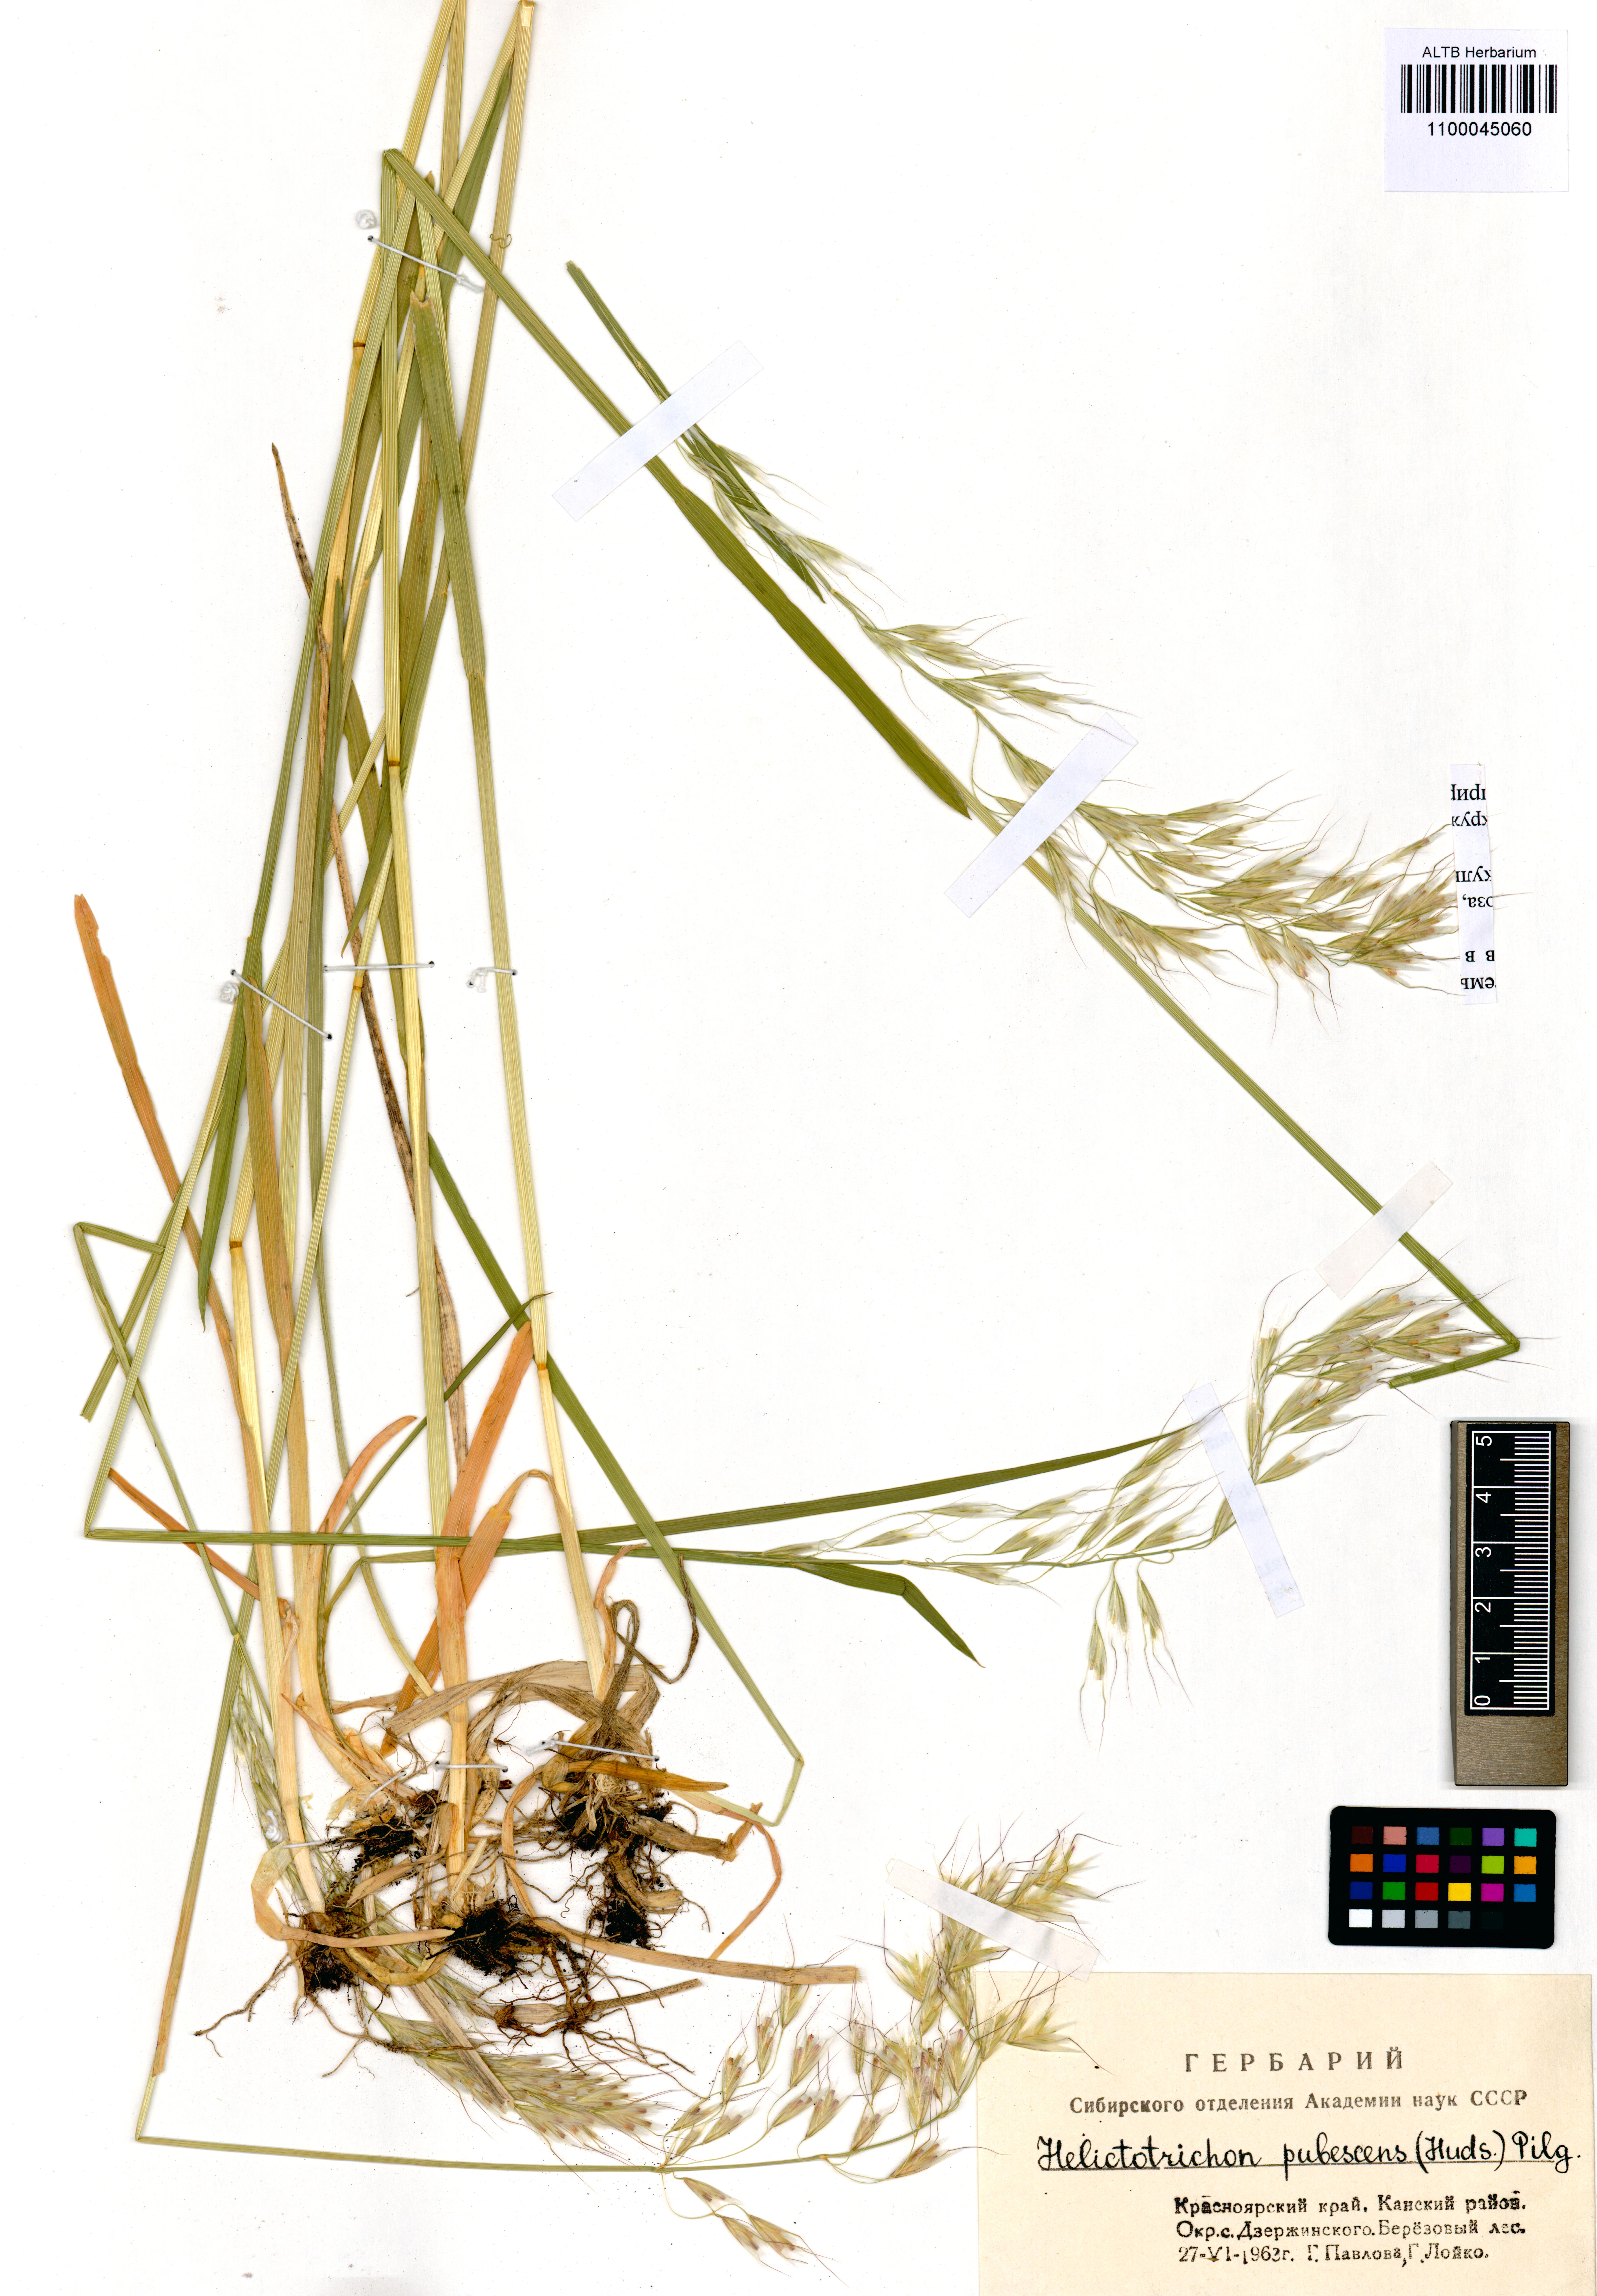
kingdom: Plantae
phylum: Tracheophyta
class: Liliopsida
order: Poales
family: Poaceae
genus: Avenula
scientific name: Avenula pubescens
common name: Downy alpine oatgrass
